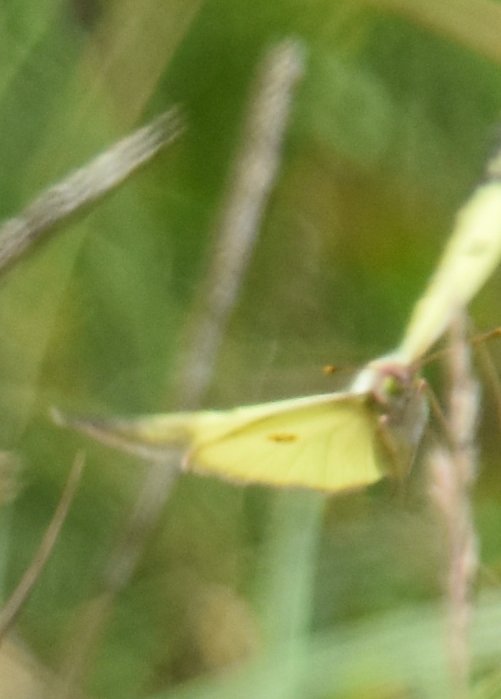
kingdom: Animalia
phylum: Arthropoda
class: Insecta
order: Lepidoptera
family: Pieridae
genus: Colias
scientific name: Colias philodice
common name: Clouded Sulphur
